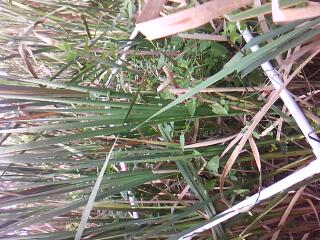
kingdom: Plantae
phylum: Tracheophyta
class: Liliopsida
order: Poales
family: Cyperaceae
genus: Carex
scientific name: Carex stricta
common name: Hummock sedge
